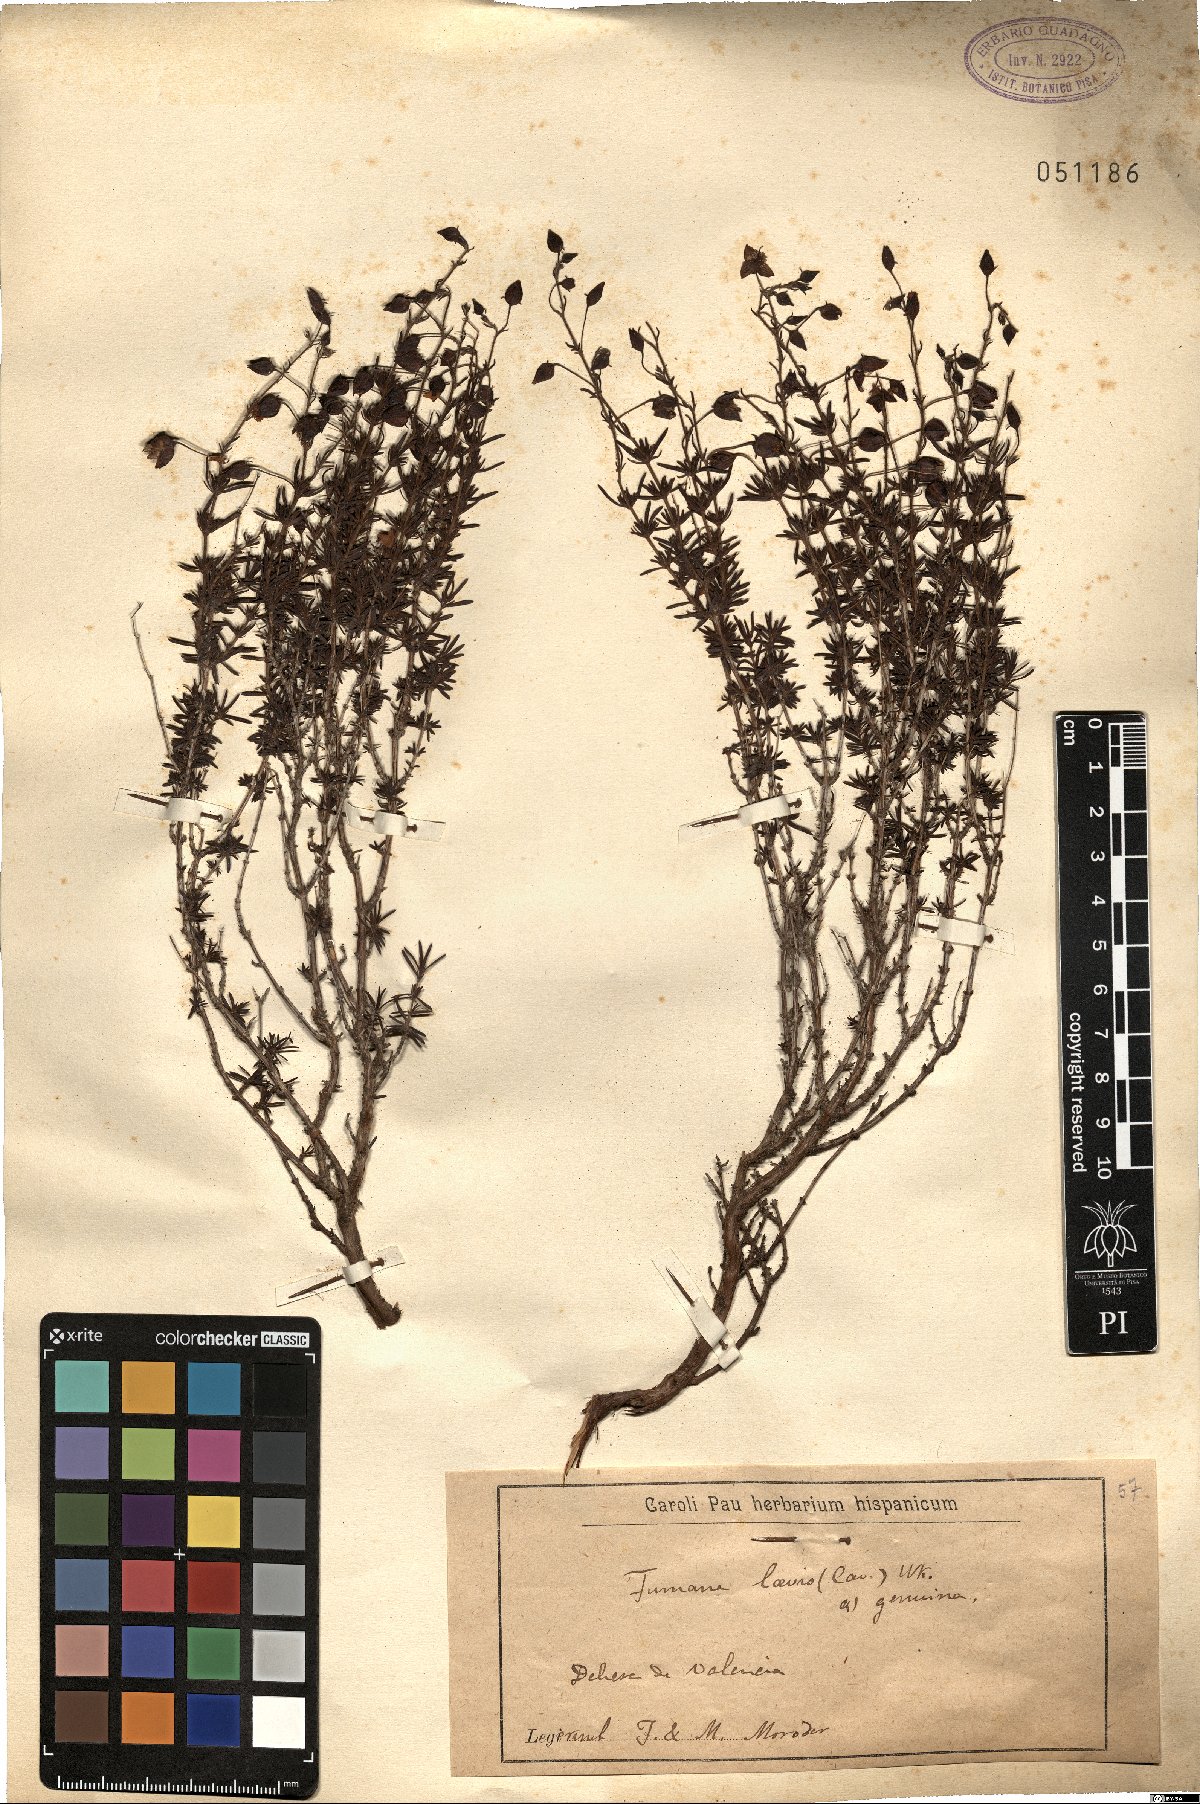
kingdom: Plantae
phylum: Tracheophyta
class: Magnoliopsida
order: Malvales
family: Cistaceae
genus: Fumana
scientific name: Fumana laevis
